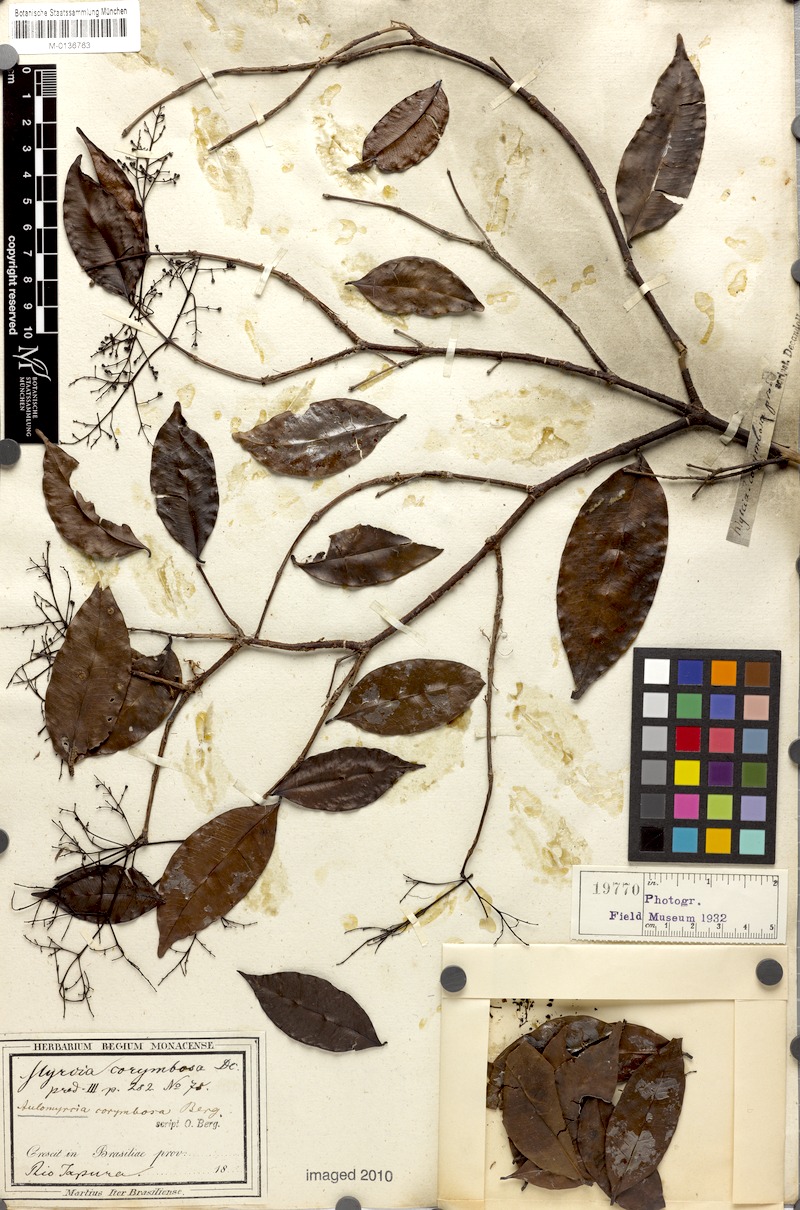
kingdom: Plantae
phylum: Tracheophyta
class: Magnoliopsida
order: Myrtales
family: Myrtaceae
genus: Myrcia
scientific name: Myrcia amazonica
